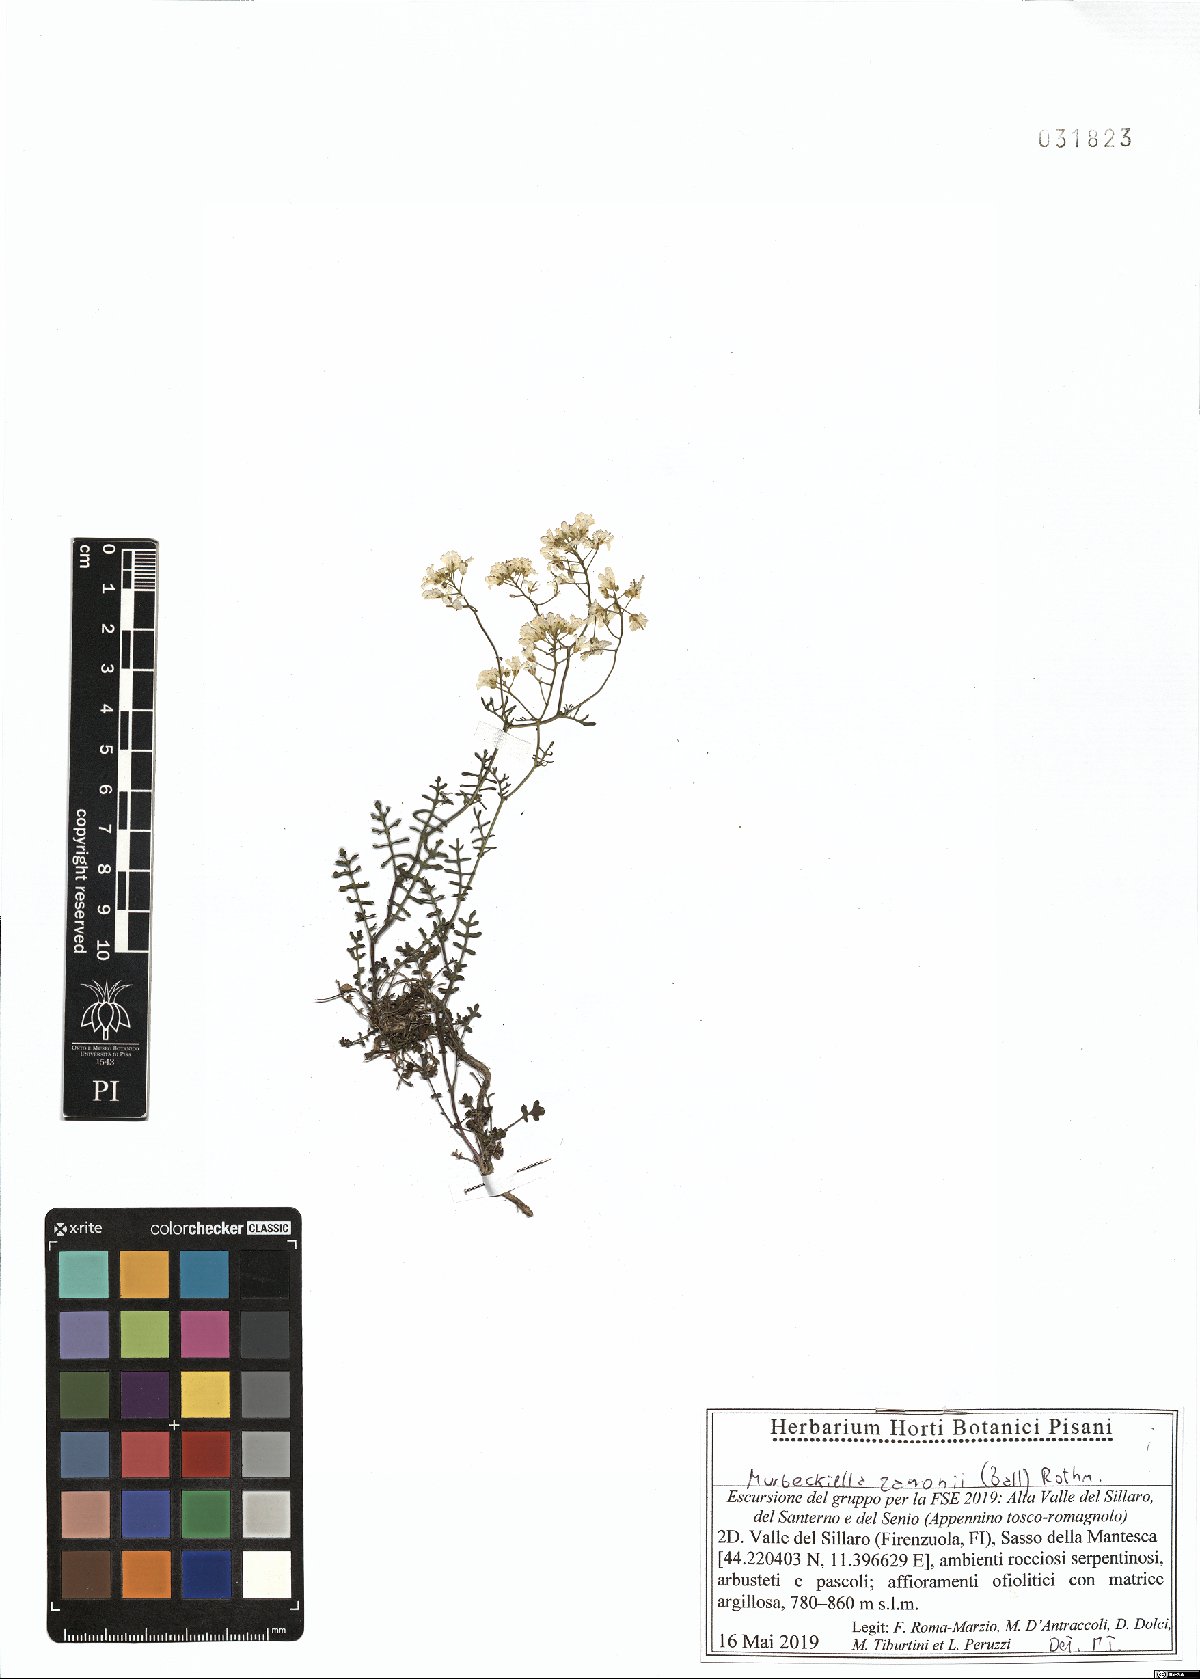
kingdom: Plantae
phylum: Tracheophyta
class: Magnoliopsida
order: Brassicales
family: Brassicaceae
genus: Murbeckiella
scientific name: Murbeckiella zanonii
